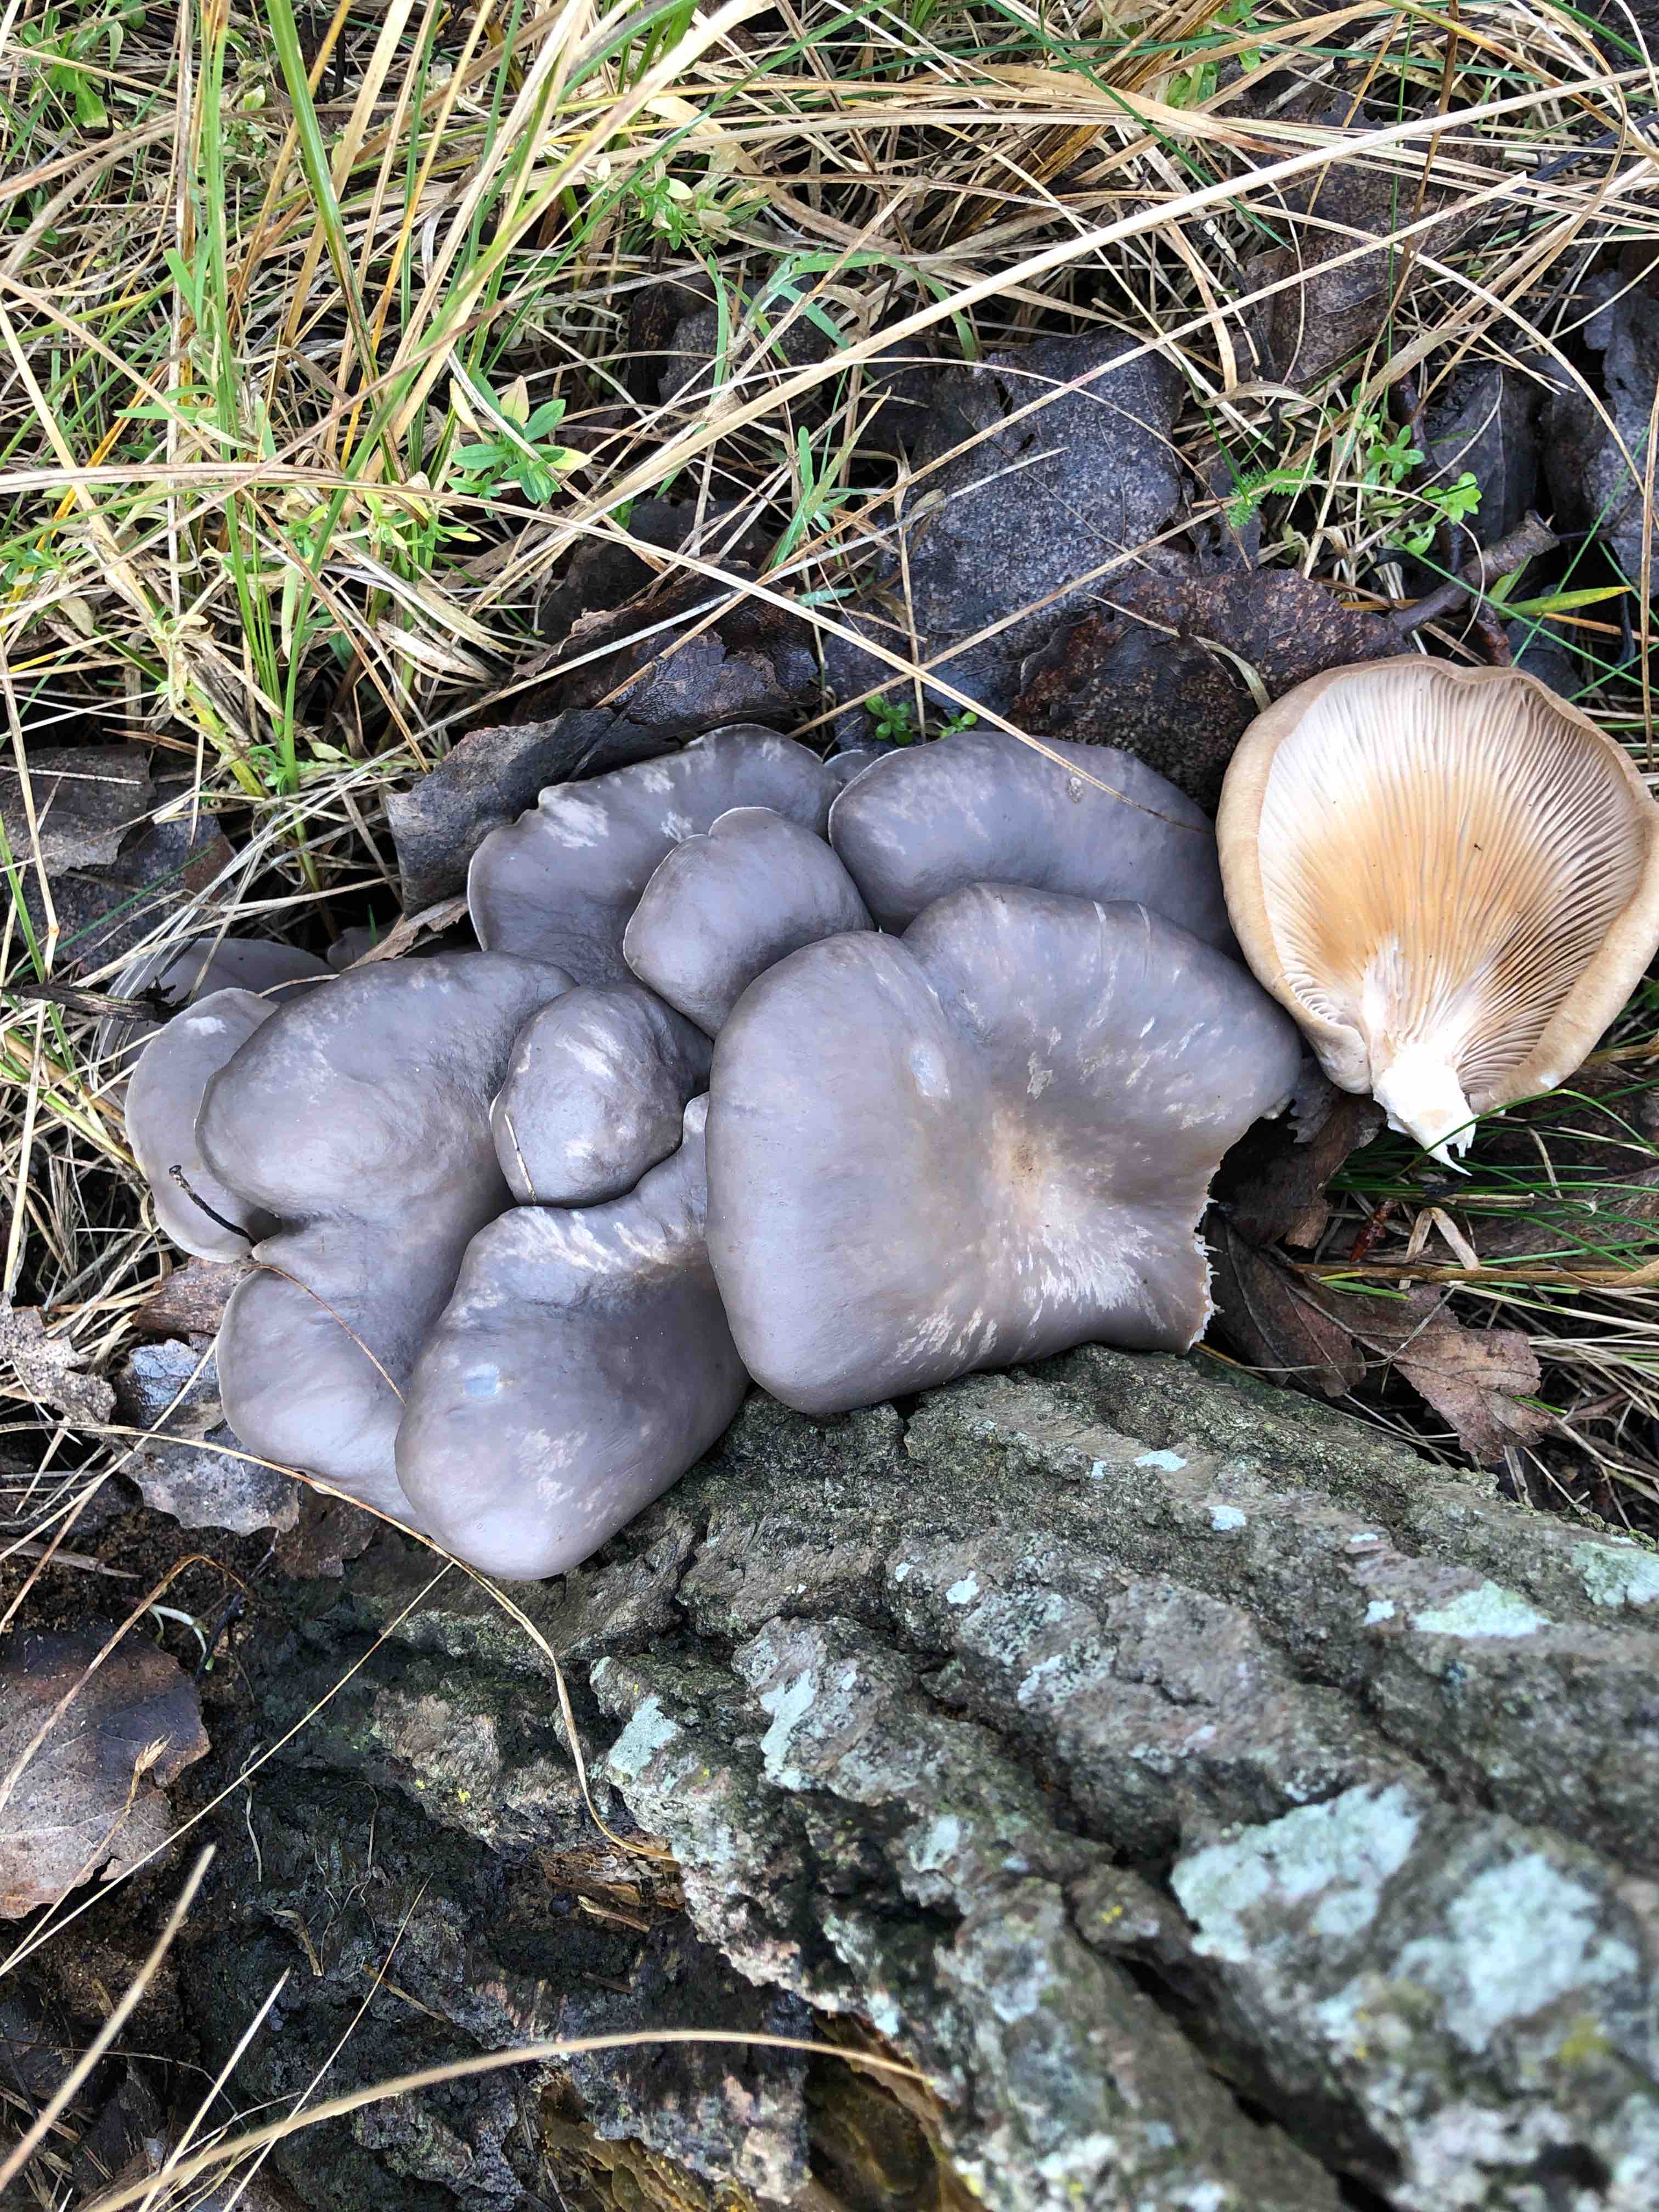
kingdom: Fungi
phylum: Basidiomycota
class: Agaricomycetes
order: Agaricales
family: Pleurotaceae
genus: Pleurotus
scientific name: Pleurotus ostreatus
